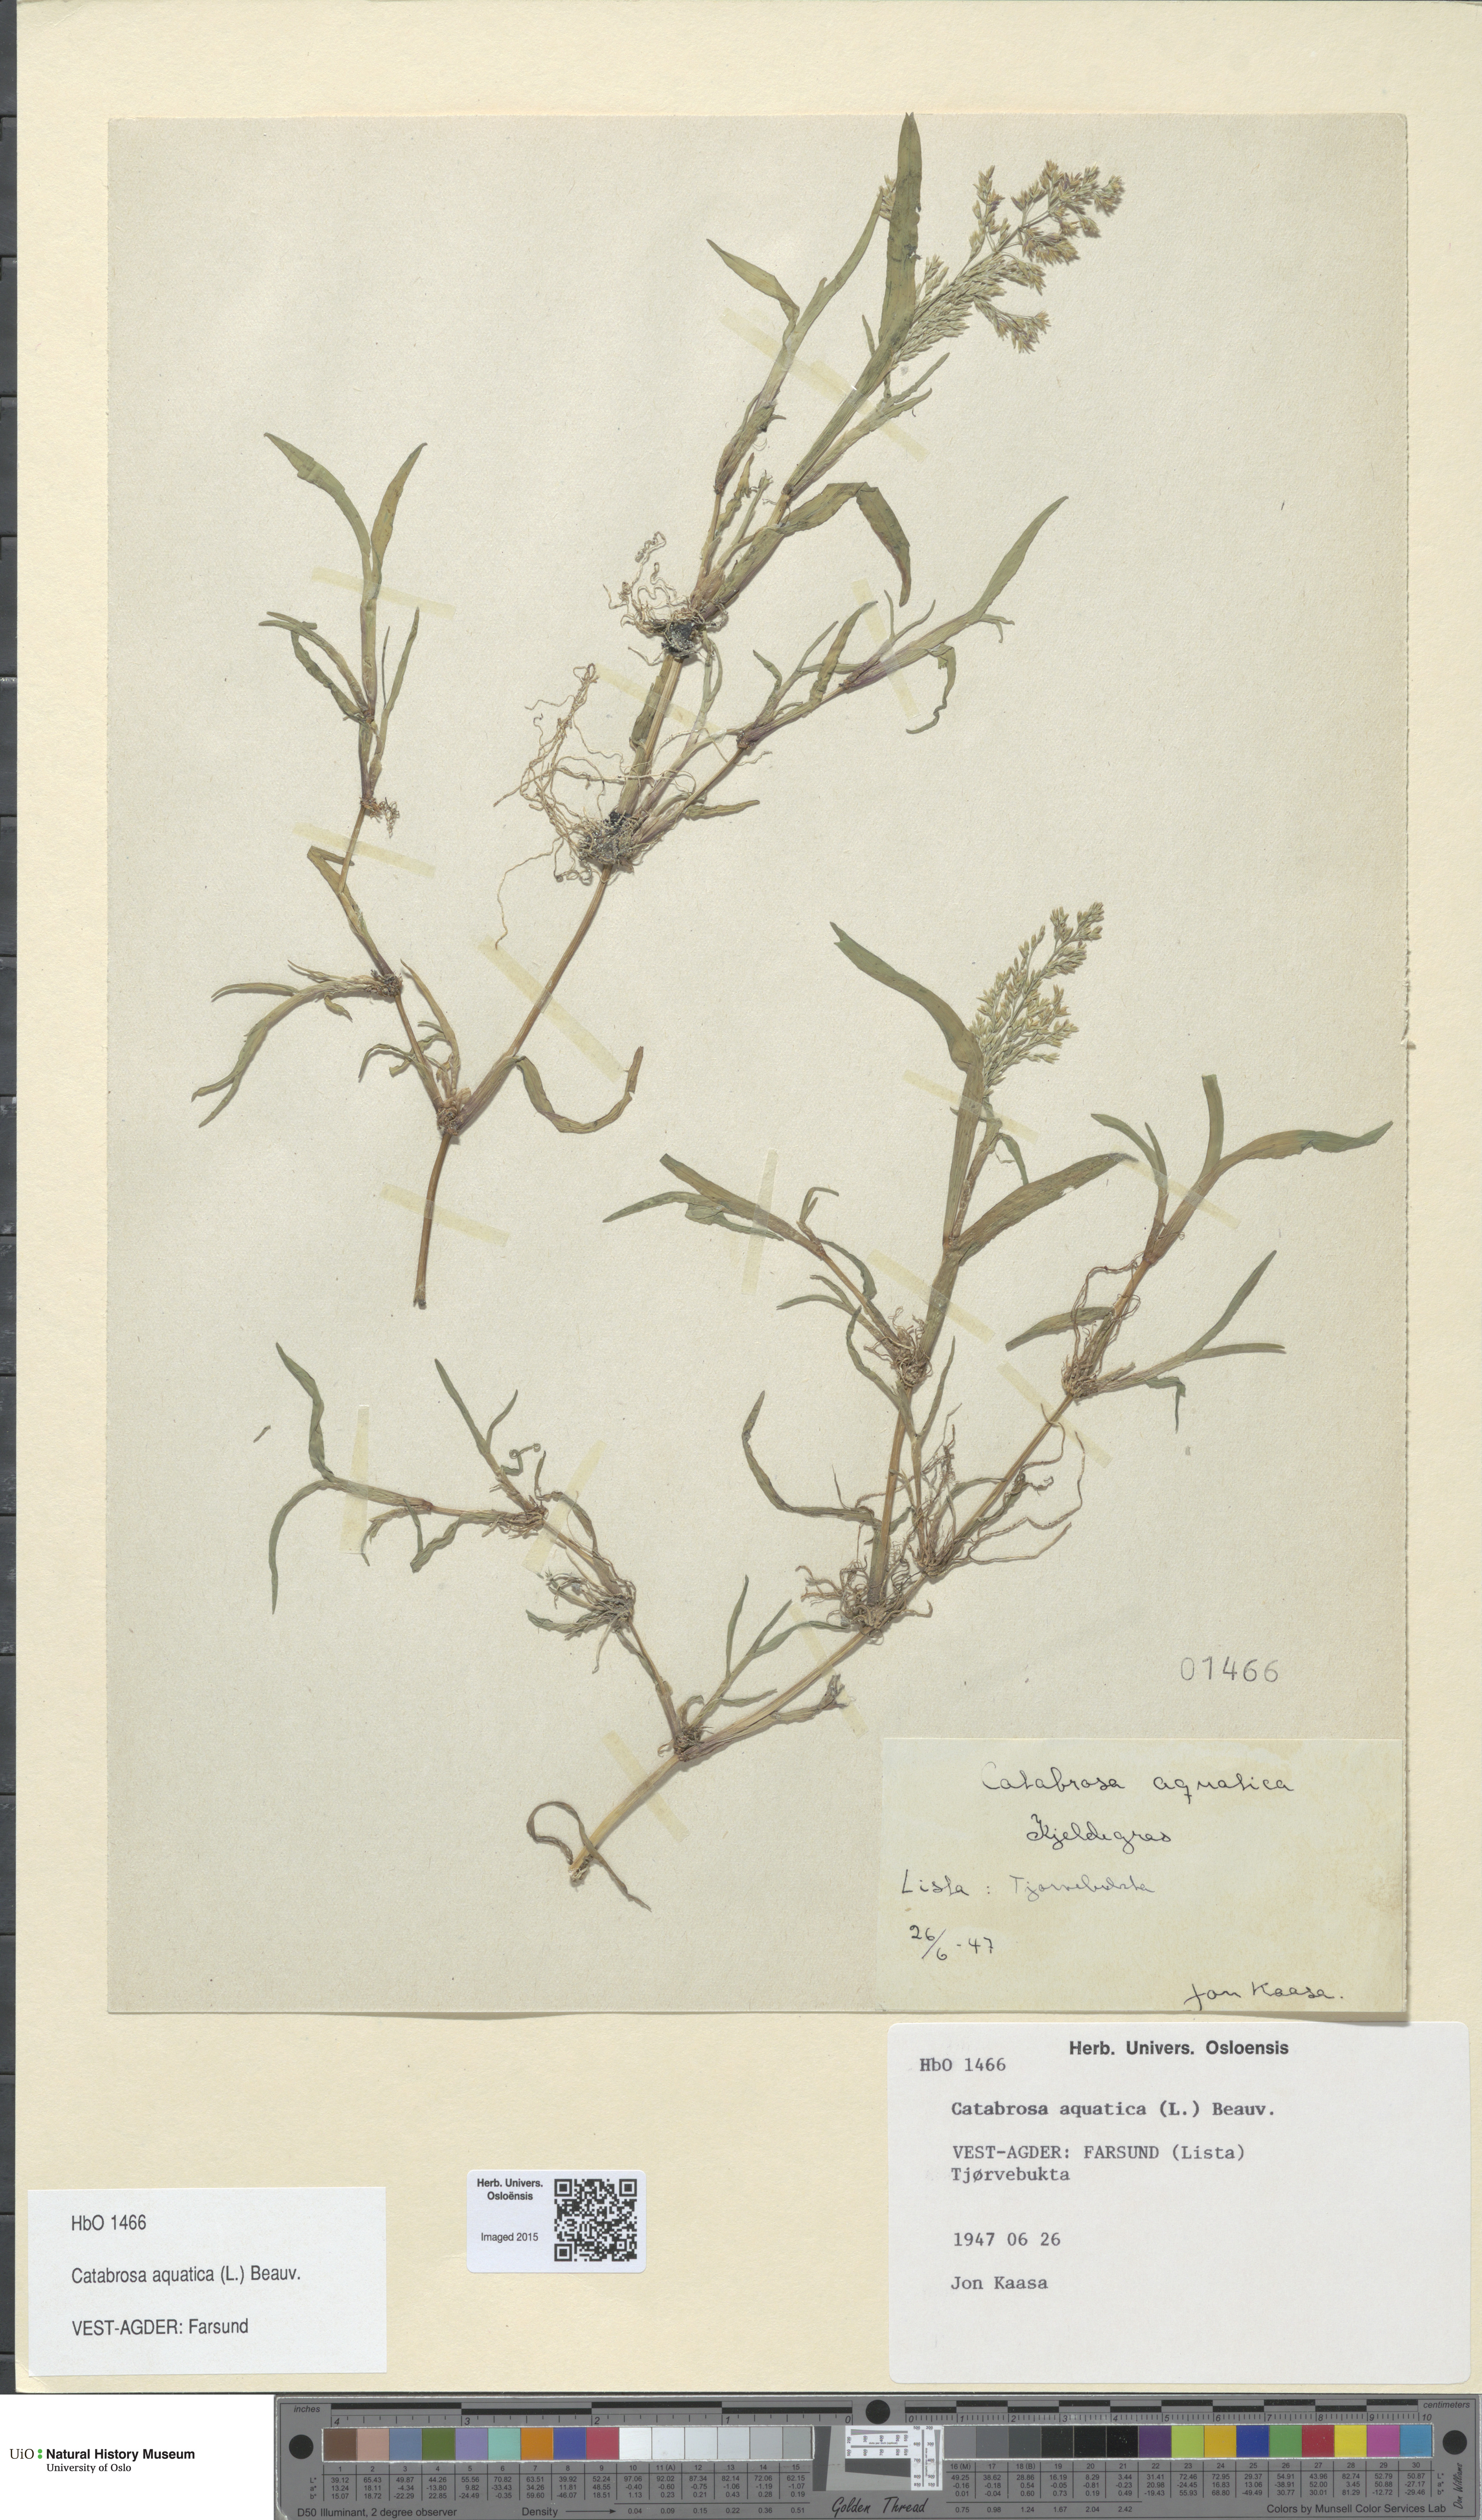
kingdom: Plantae
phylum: Tracheophyta
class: Liliopsida
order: Poales
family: Poaceae
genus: Catabrosa
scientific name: Catabrosa aquatica
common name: Whorl-grass
